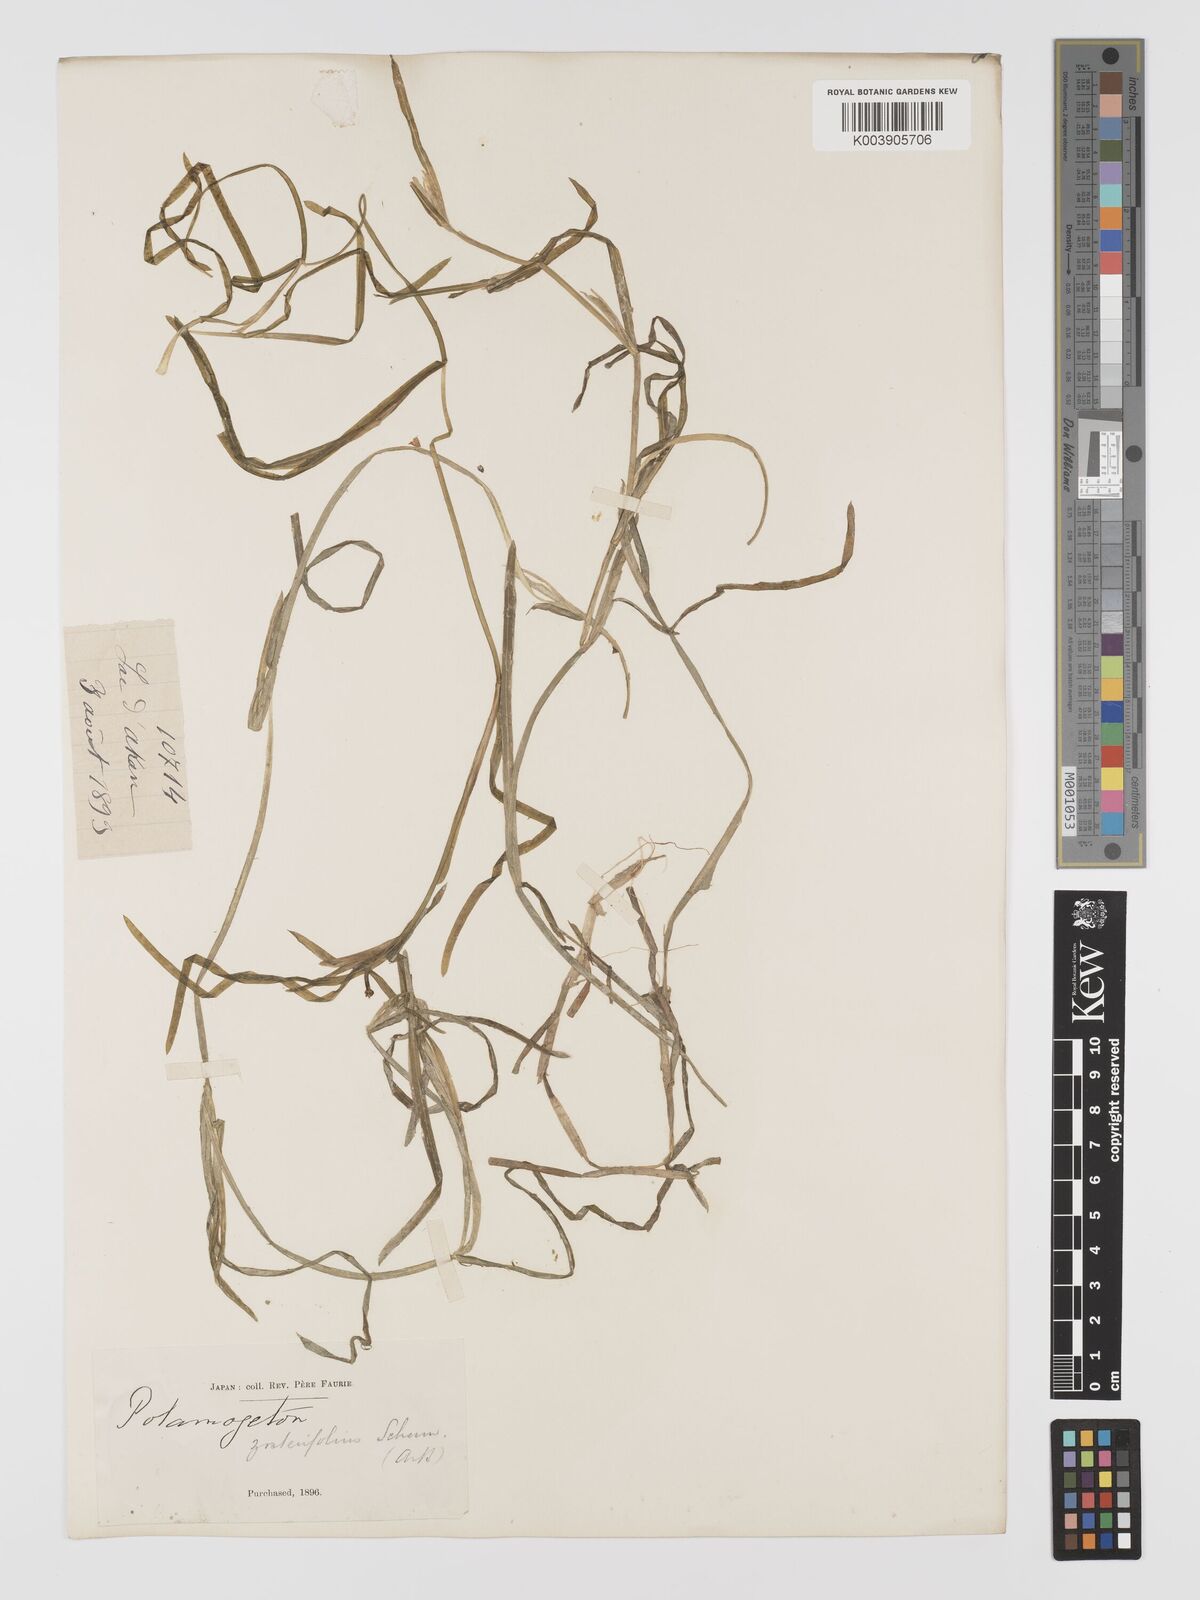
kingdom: Plantae
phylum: Tracheophyta
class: Liliopsida
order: Alismatales
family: Potamogetonaceae
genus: Potamogeton
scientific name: Potamogeton compressus
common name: Grass-wrack pondweed
